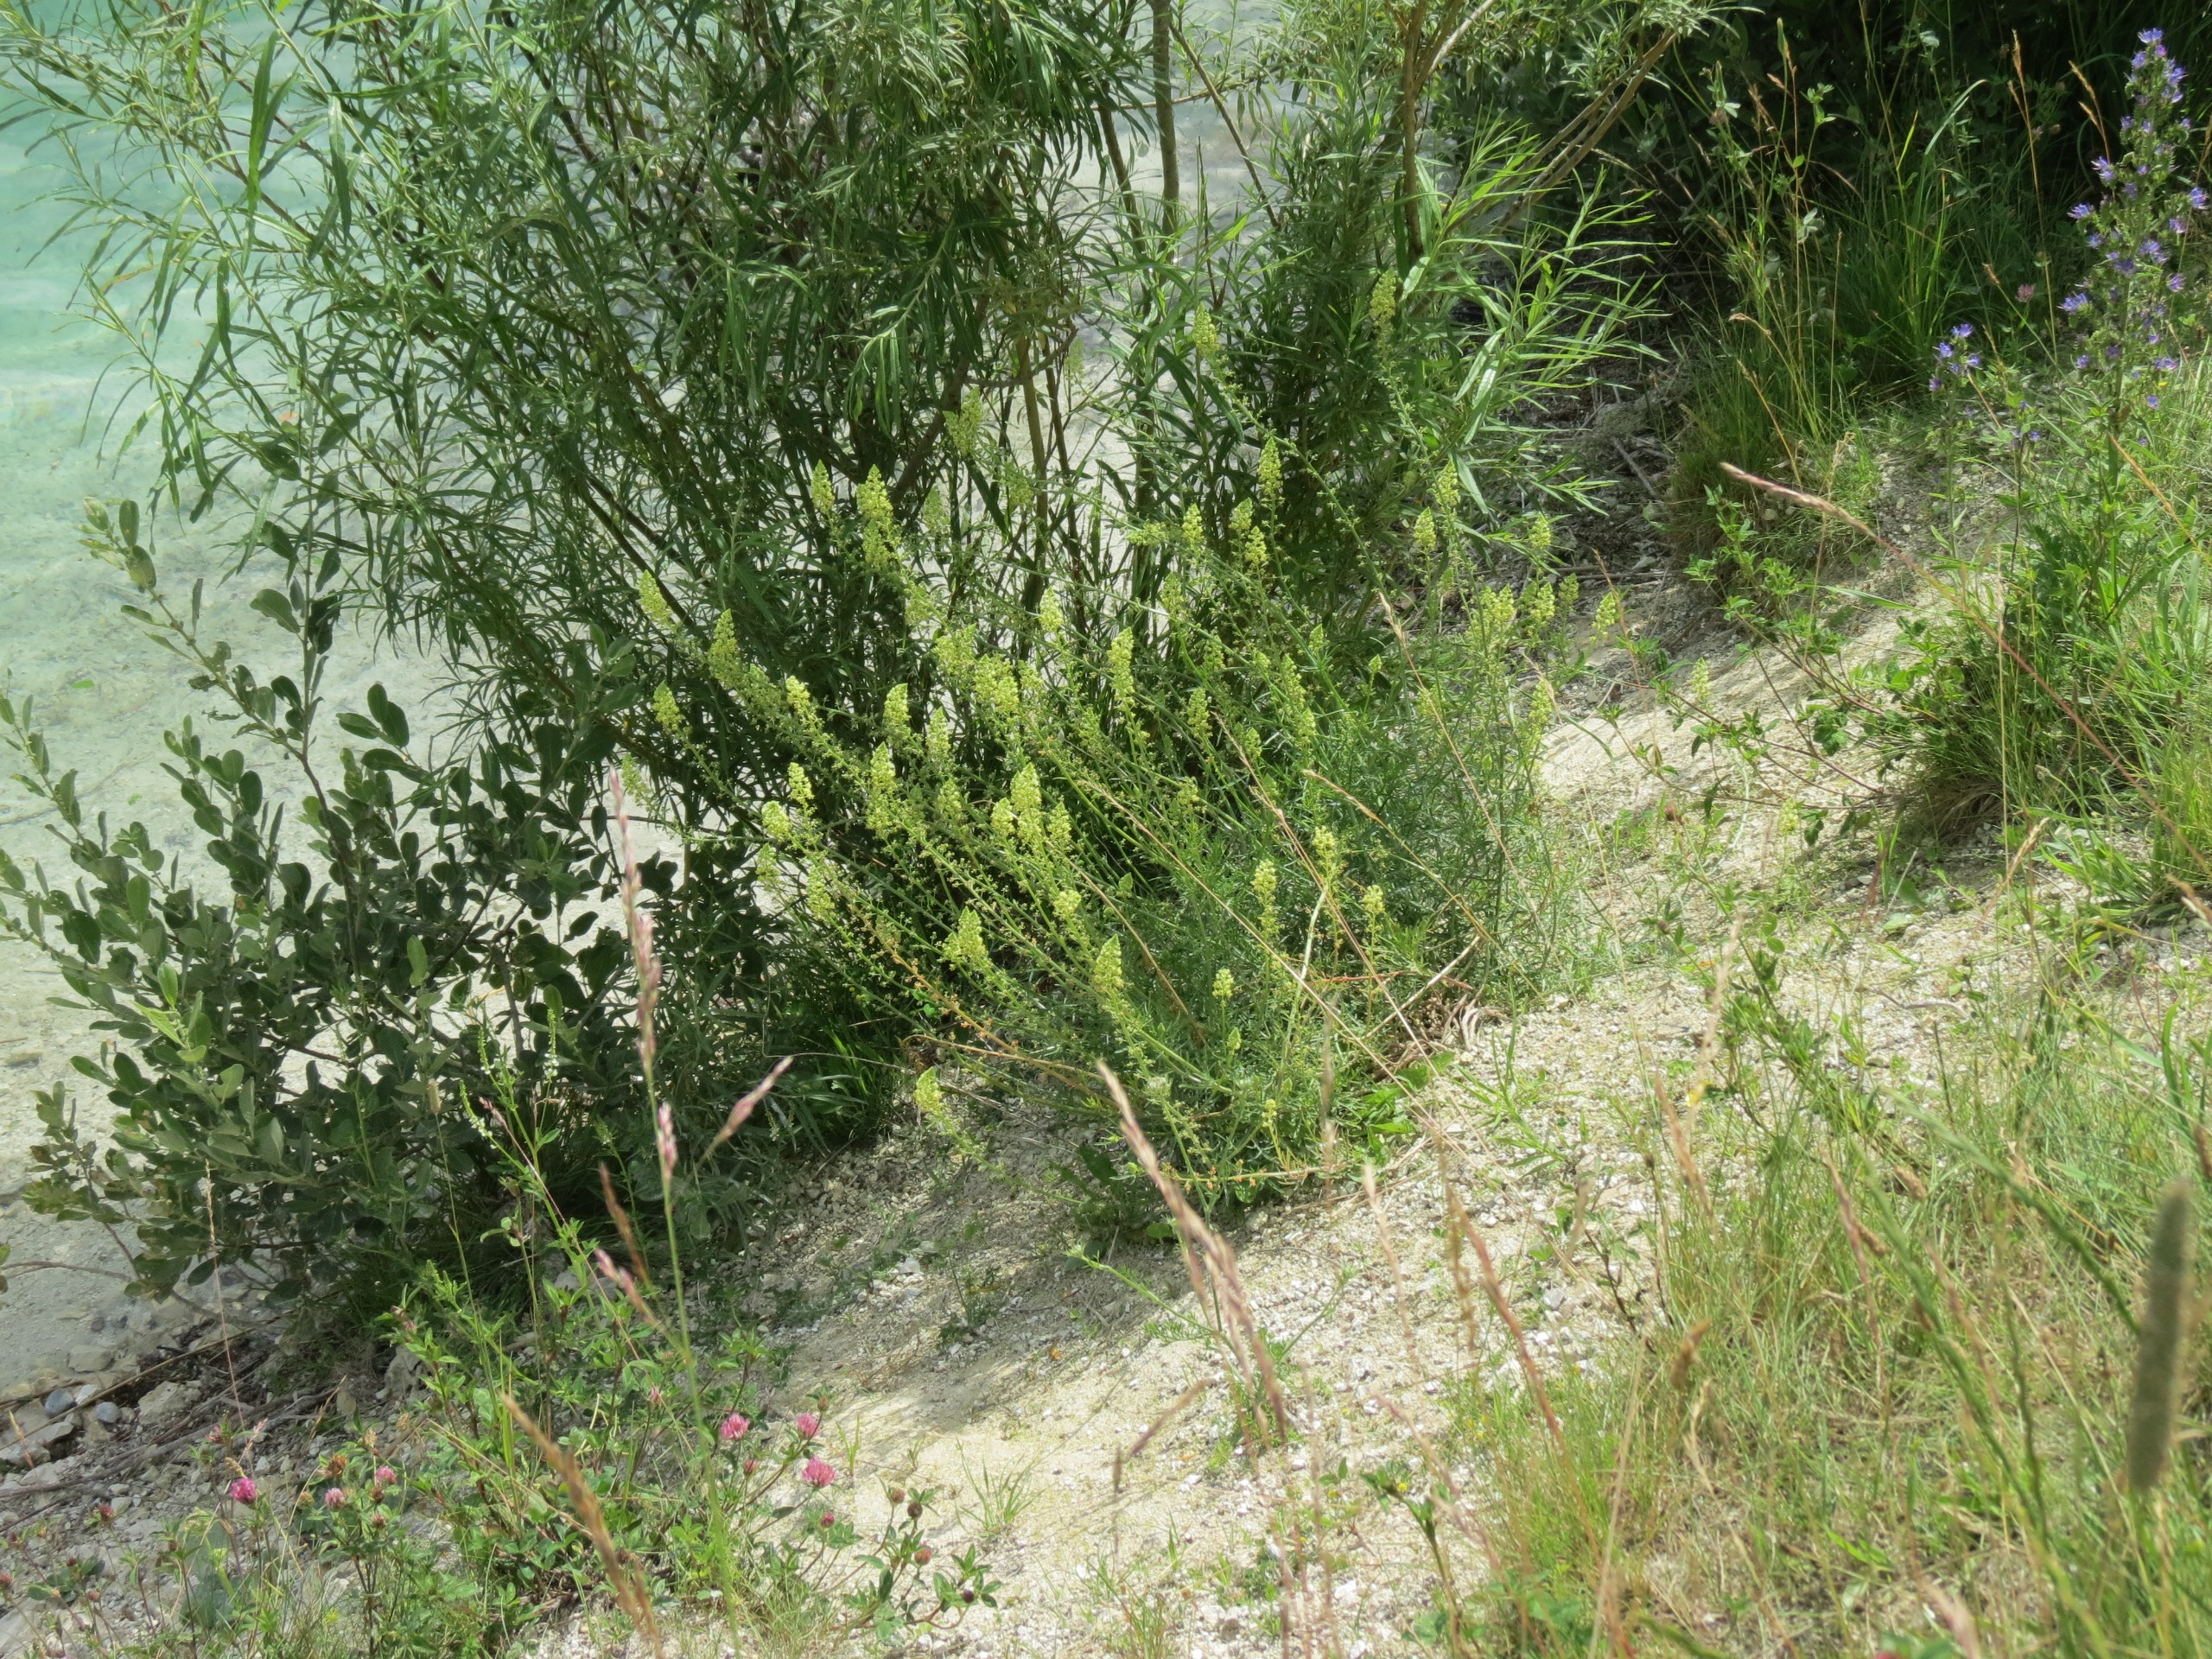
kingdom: Plantae
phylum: Tracheophyta
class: Magnoliopsida
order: Brassicales
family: Resedaceae
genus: Reseda
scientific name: Reseda lutea
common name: Gul reseda
